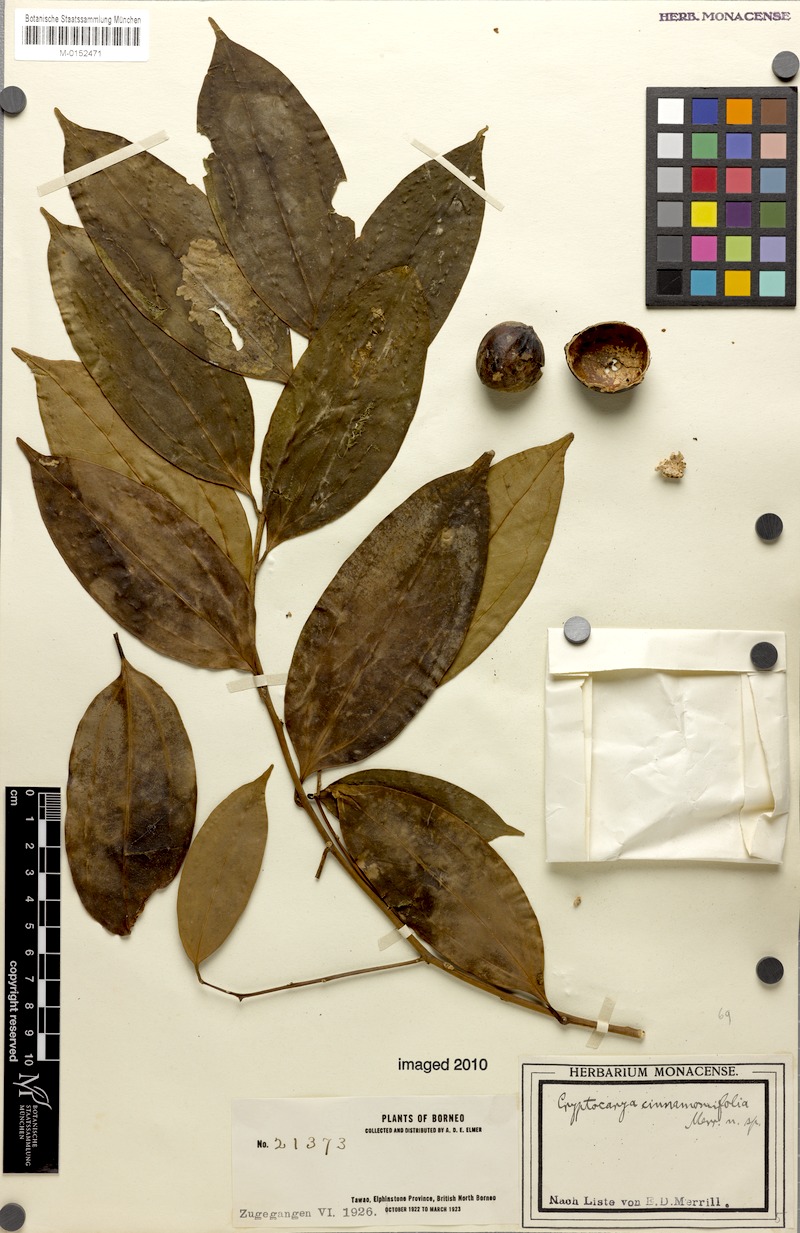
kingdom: Plantae
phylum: Tracheophyta
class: Magnoliopsida
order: Laurales
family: Lauraceae
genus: Cryptocarya
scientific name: Cryptocarya laevigata
